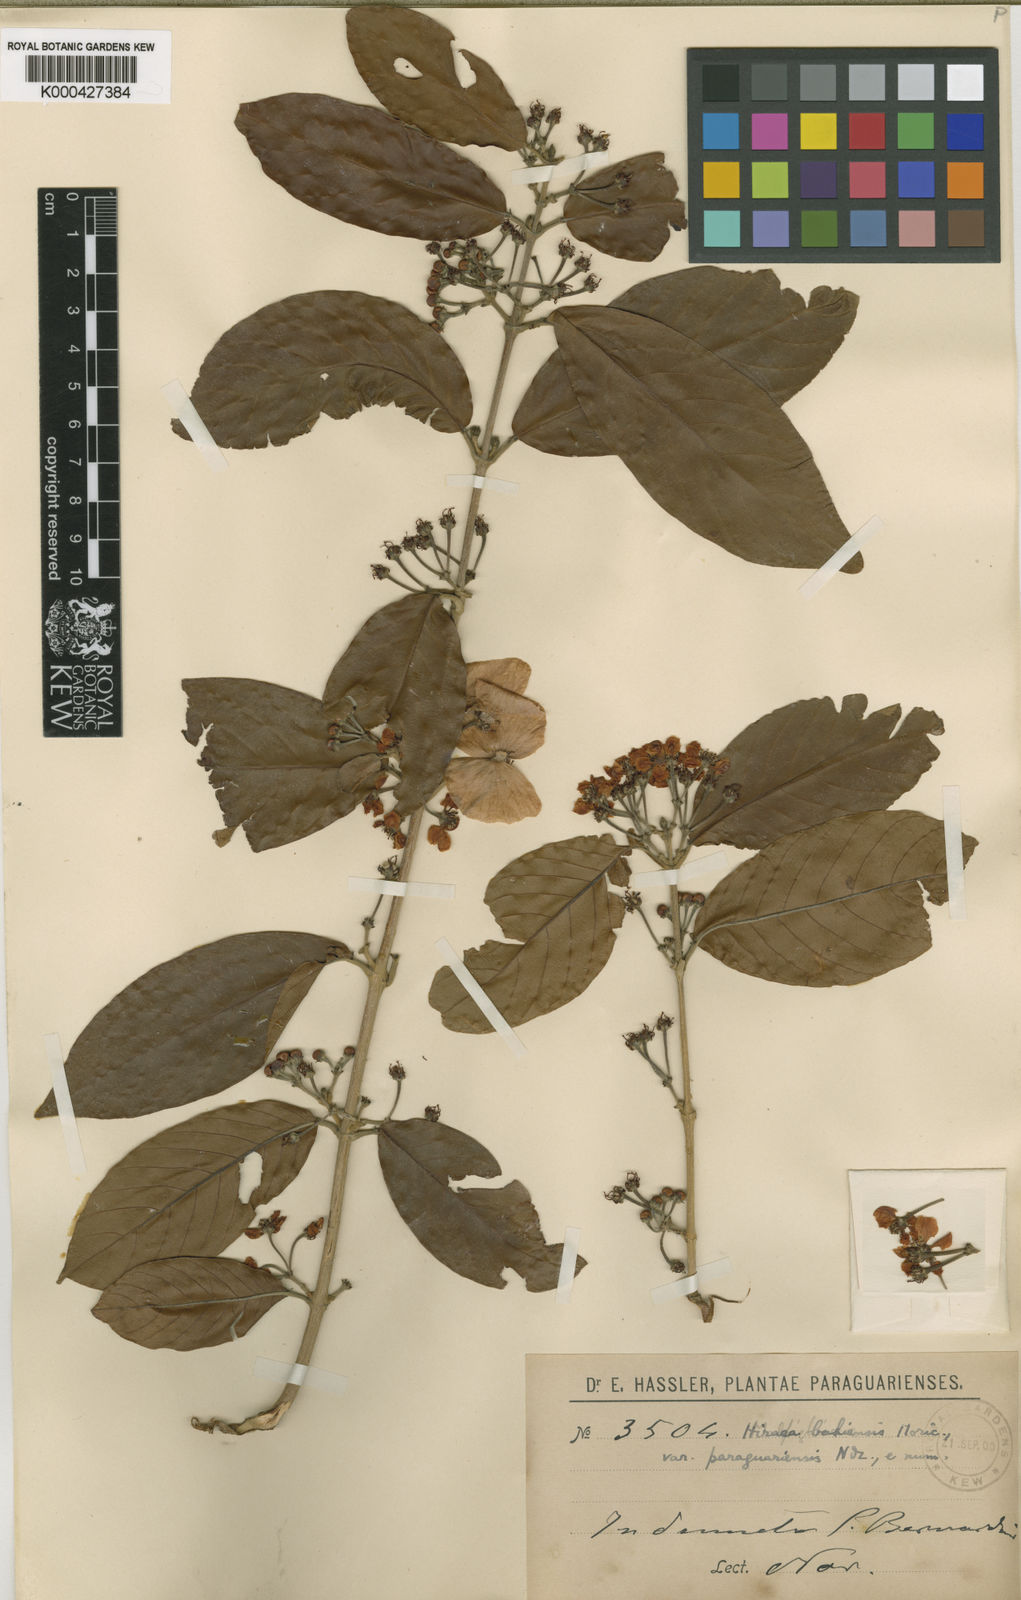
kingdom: Plantae
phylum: Tracheophyta
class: Magnoliopsida
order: Malpighiales
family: Malpighiaceae
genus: Hiraea
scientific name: Hiraea fagifolia
